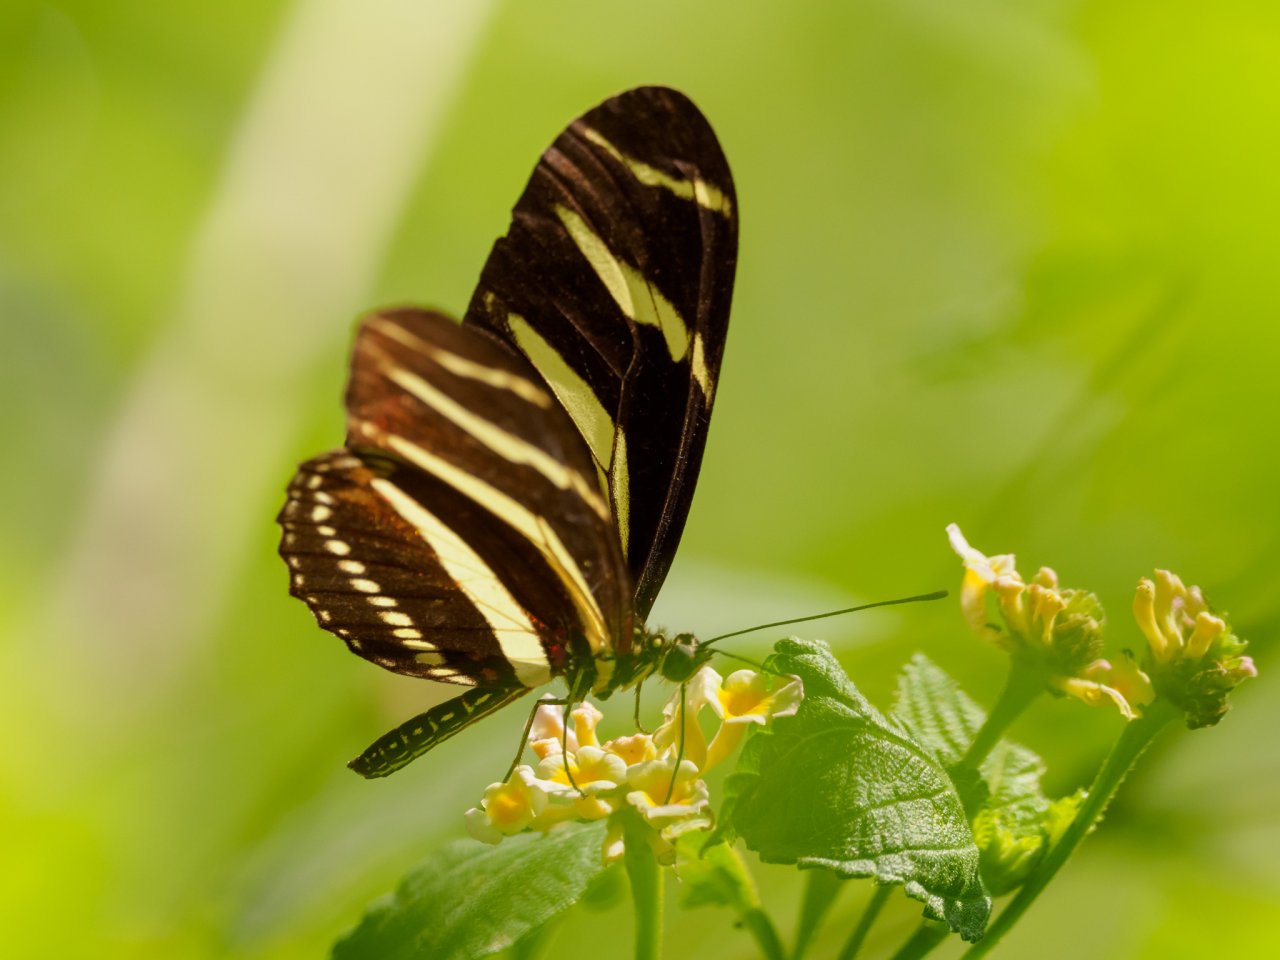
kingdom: Animalia
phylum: Arthropoda
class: Insecta
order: Lepidoptera
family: Nymphalidae
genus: Heliconius
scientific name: Heliconius charithonia
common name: Zebra Longwing
